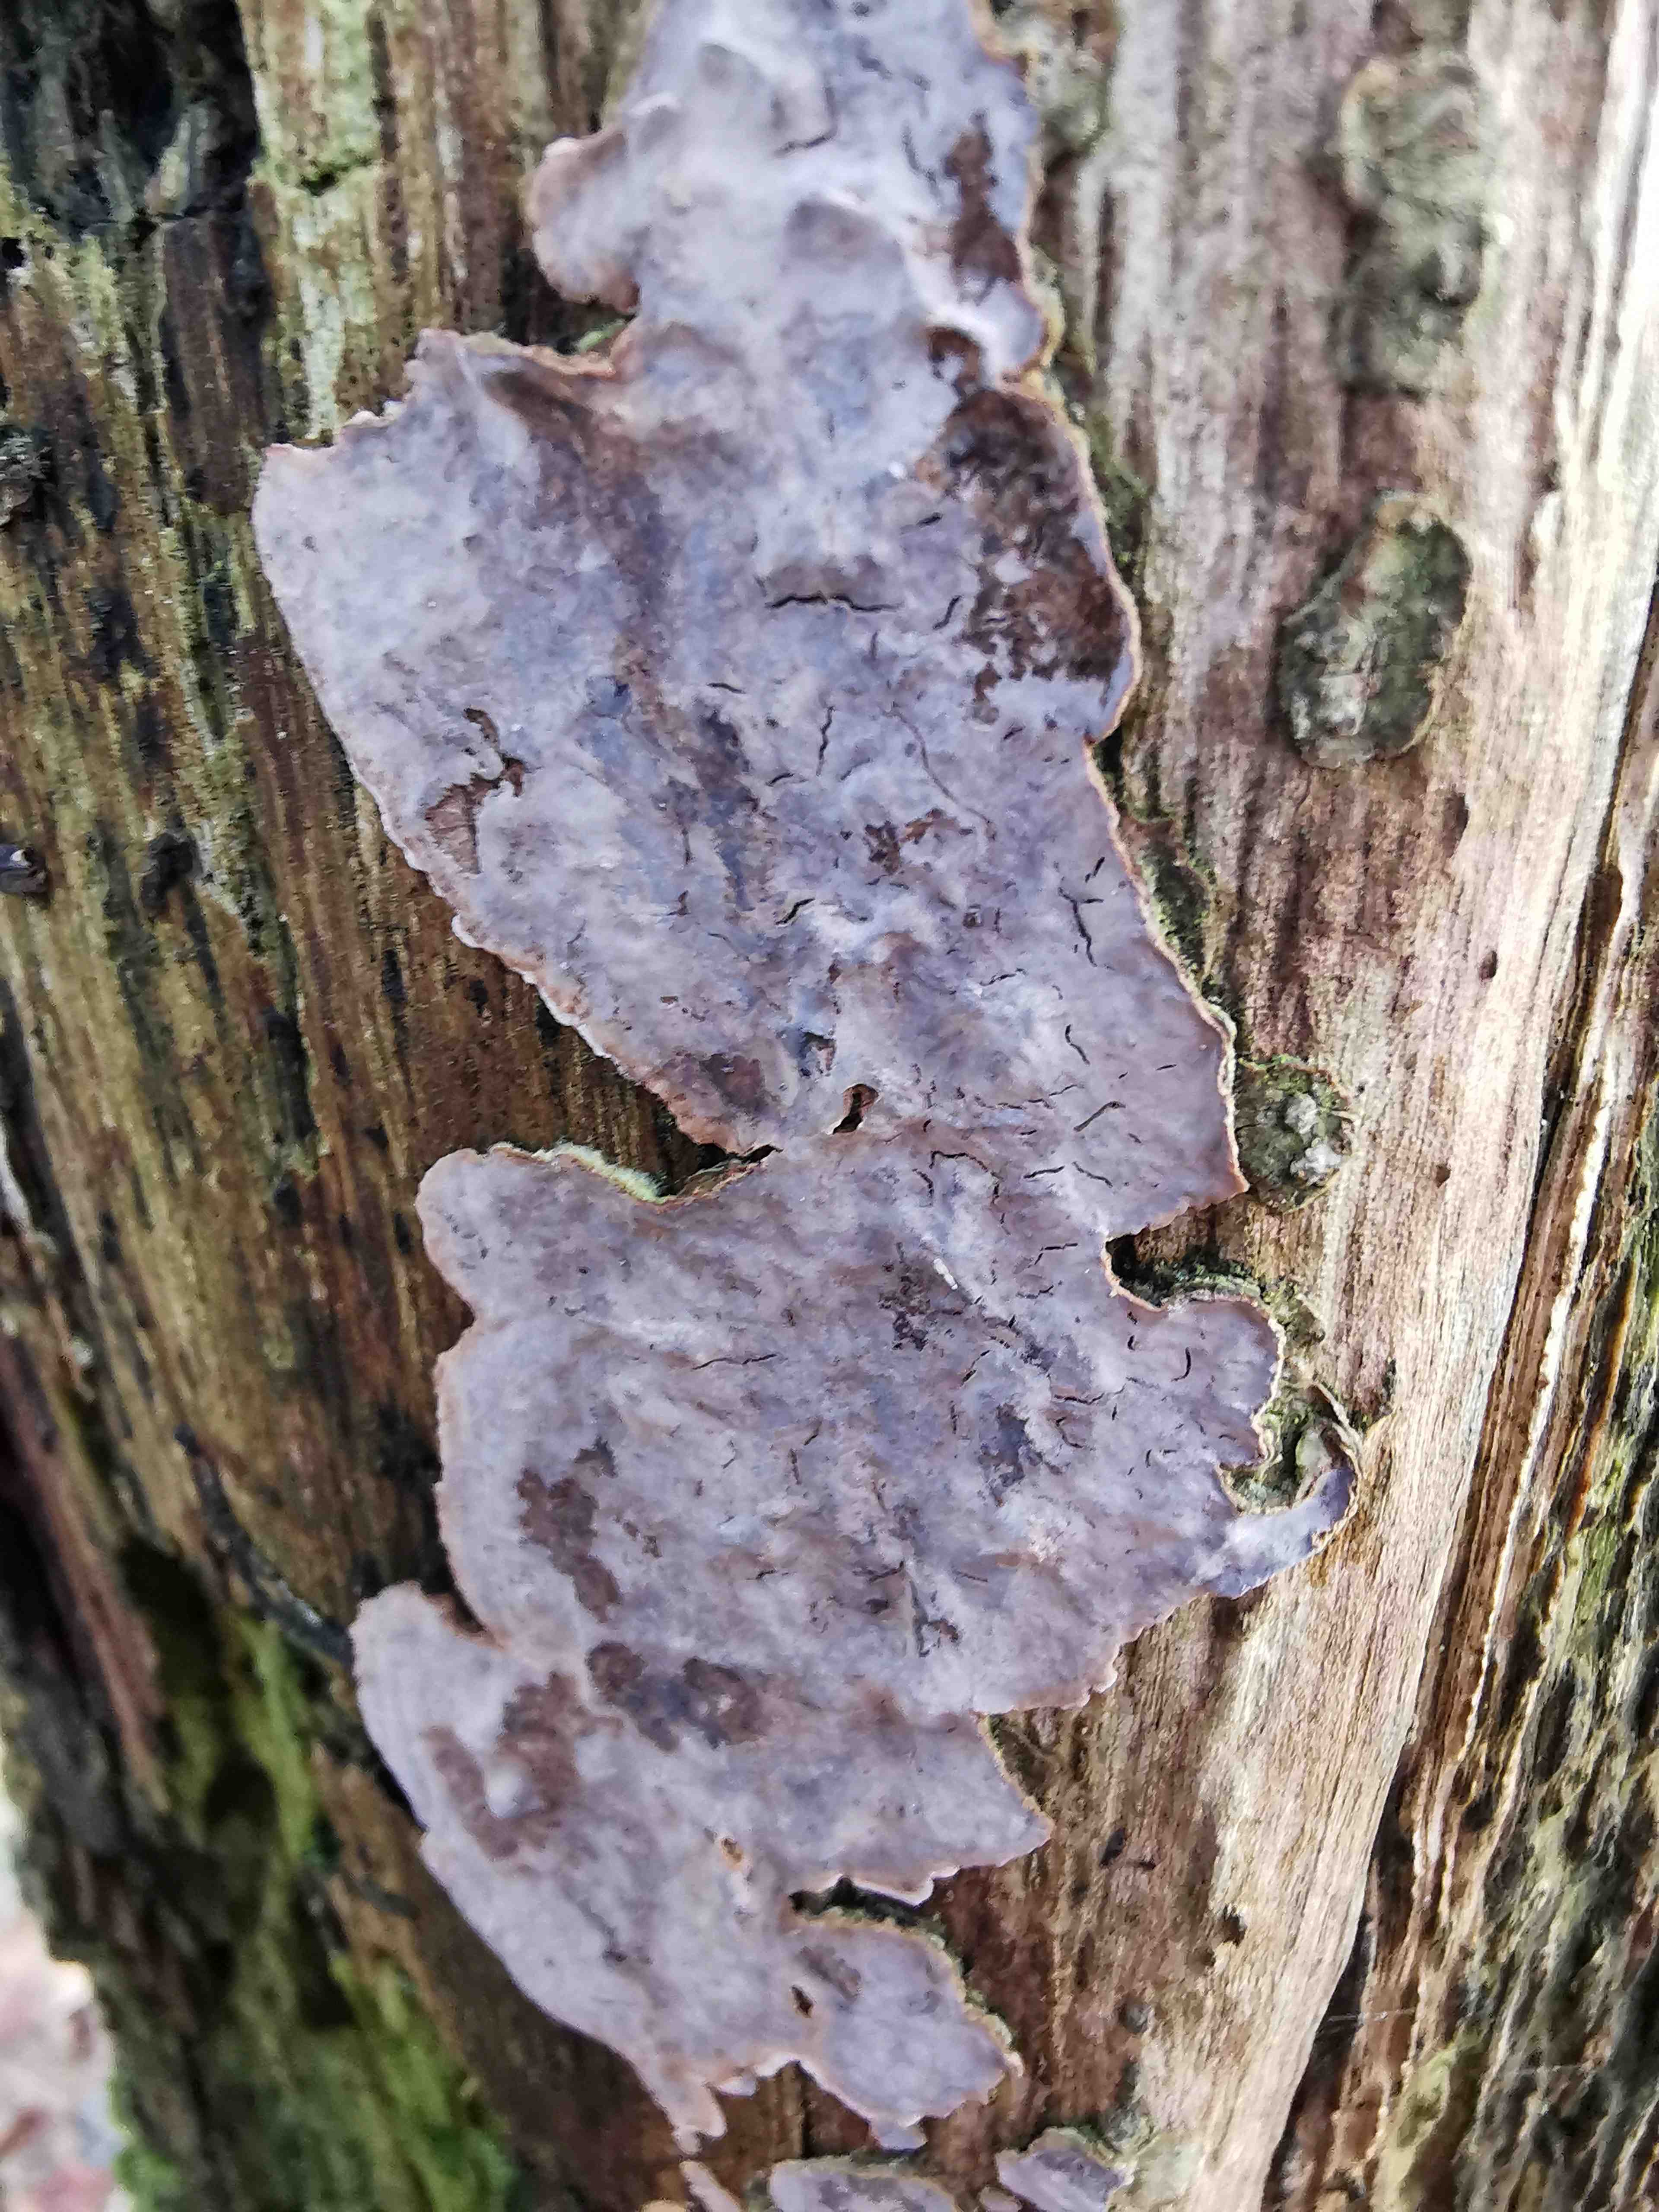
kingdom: Fungi
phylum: Basidiomycota
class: Agaricomycetes
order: Russulales
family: Stereaceae
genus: Stereum
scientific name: Stereum rugosum
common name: rynket lædersvamp
